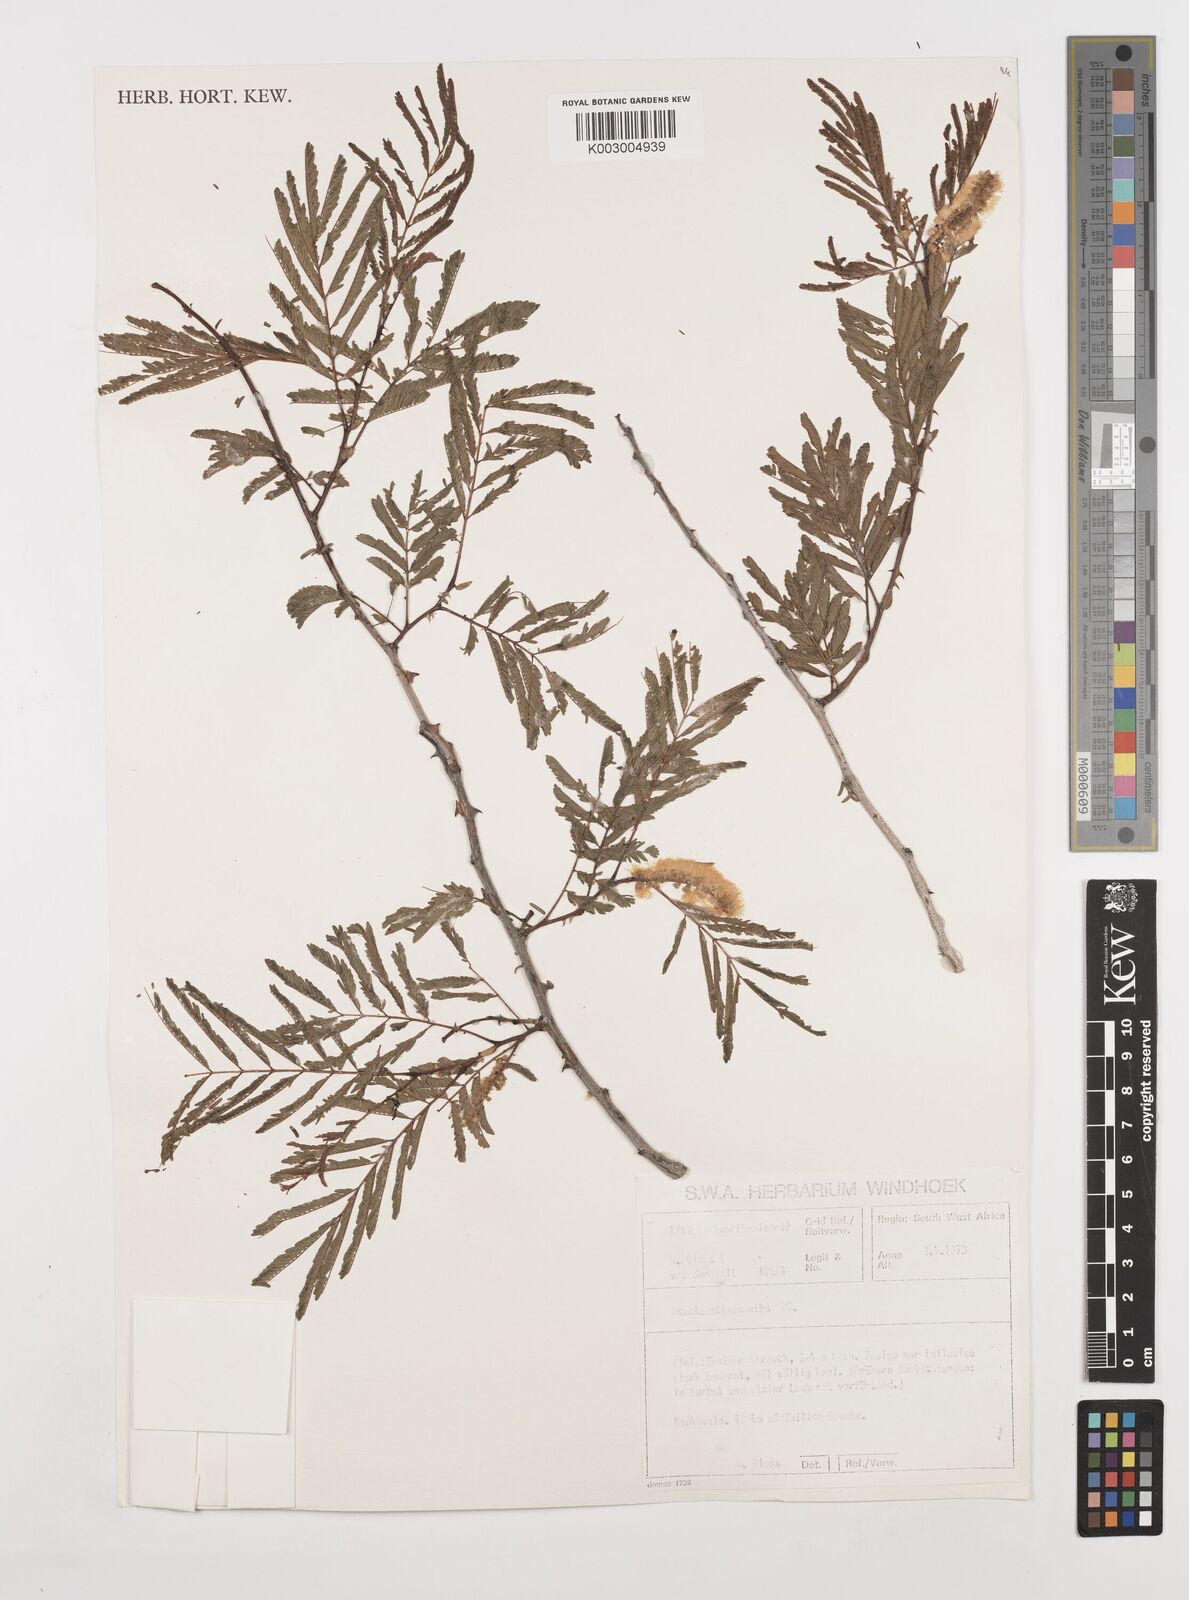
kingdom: Plantae
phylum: Tracheophyta
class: Magnoliopsida
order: Fabales
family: Fabaceae
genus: Senegalia
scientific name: Senegalia ataxacantha
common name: Flame acacia
